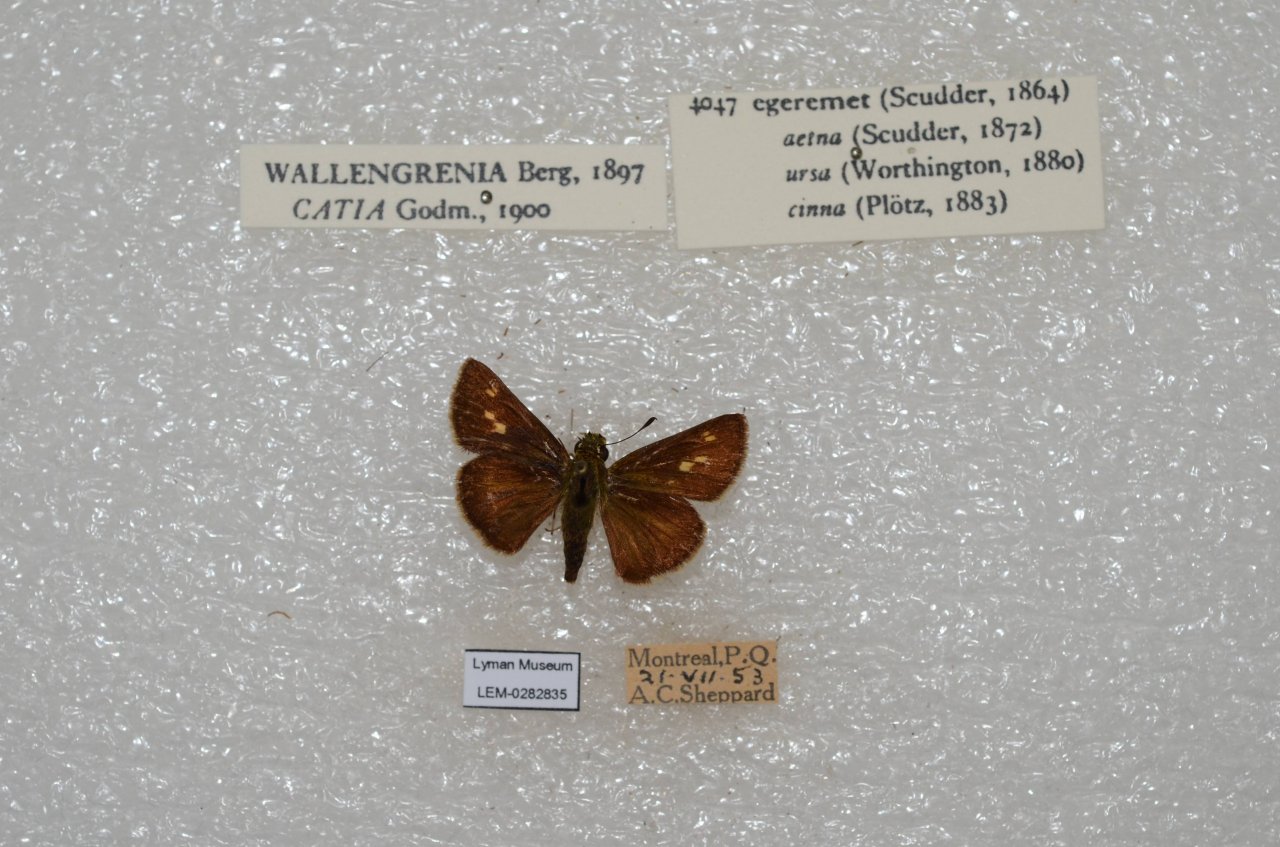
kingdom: Animalia
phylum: Arthropoda
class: Insecta
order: Lepidoptera
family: Hesperiidae
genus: Polites
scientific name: Polites egeremet
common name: Northern Broken-Dash
